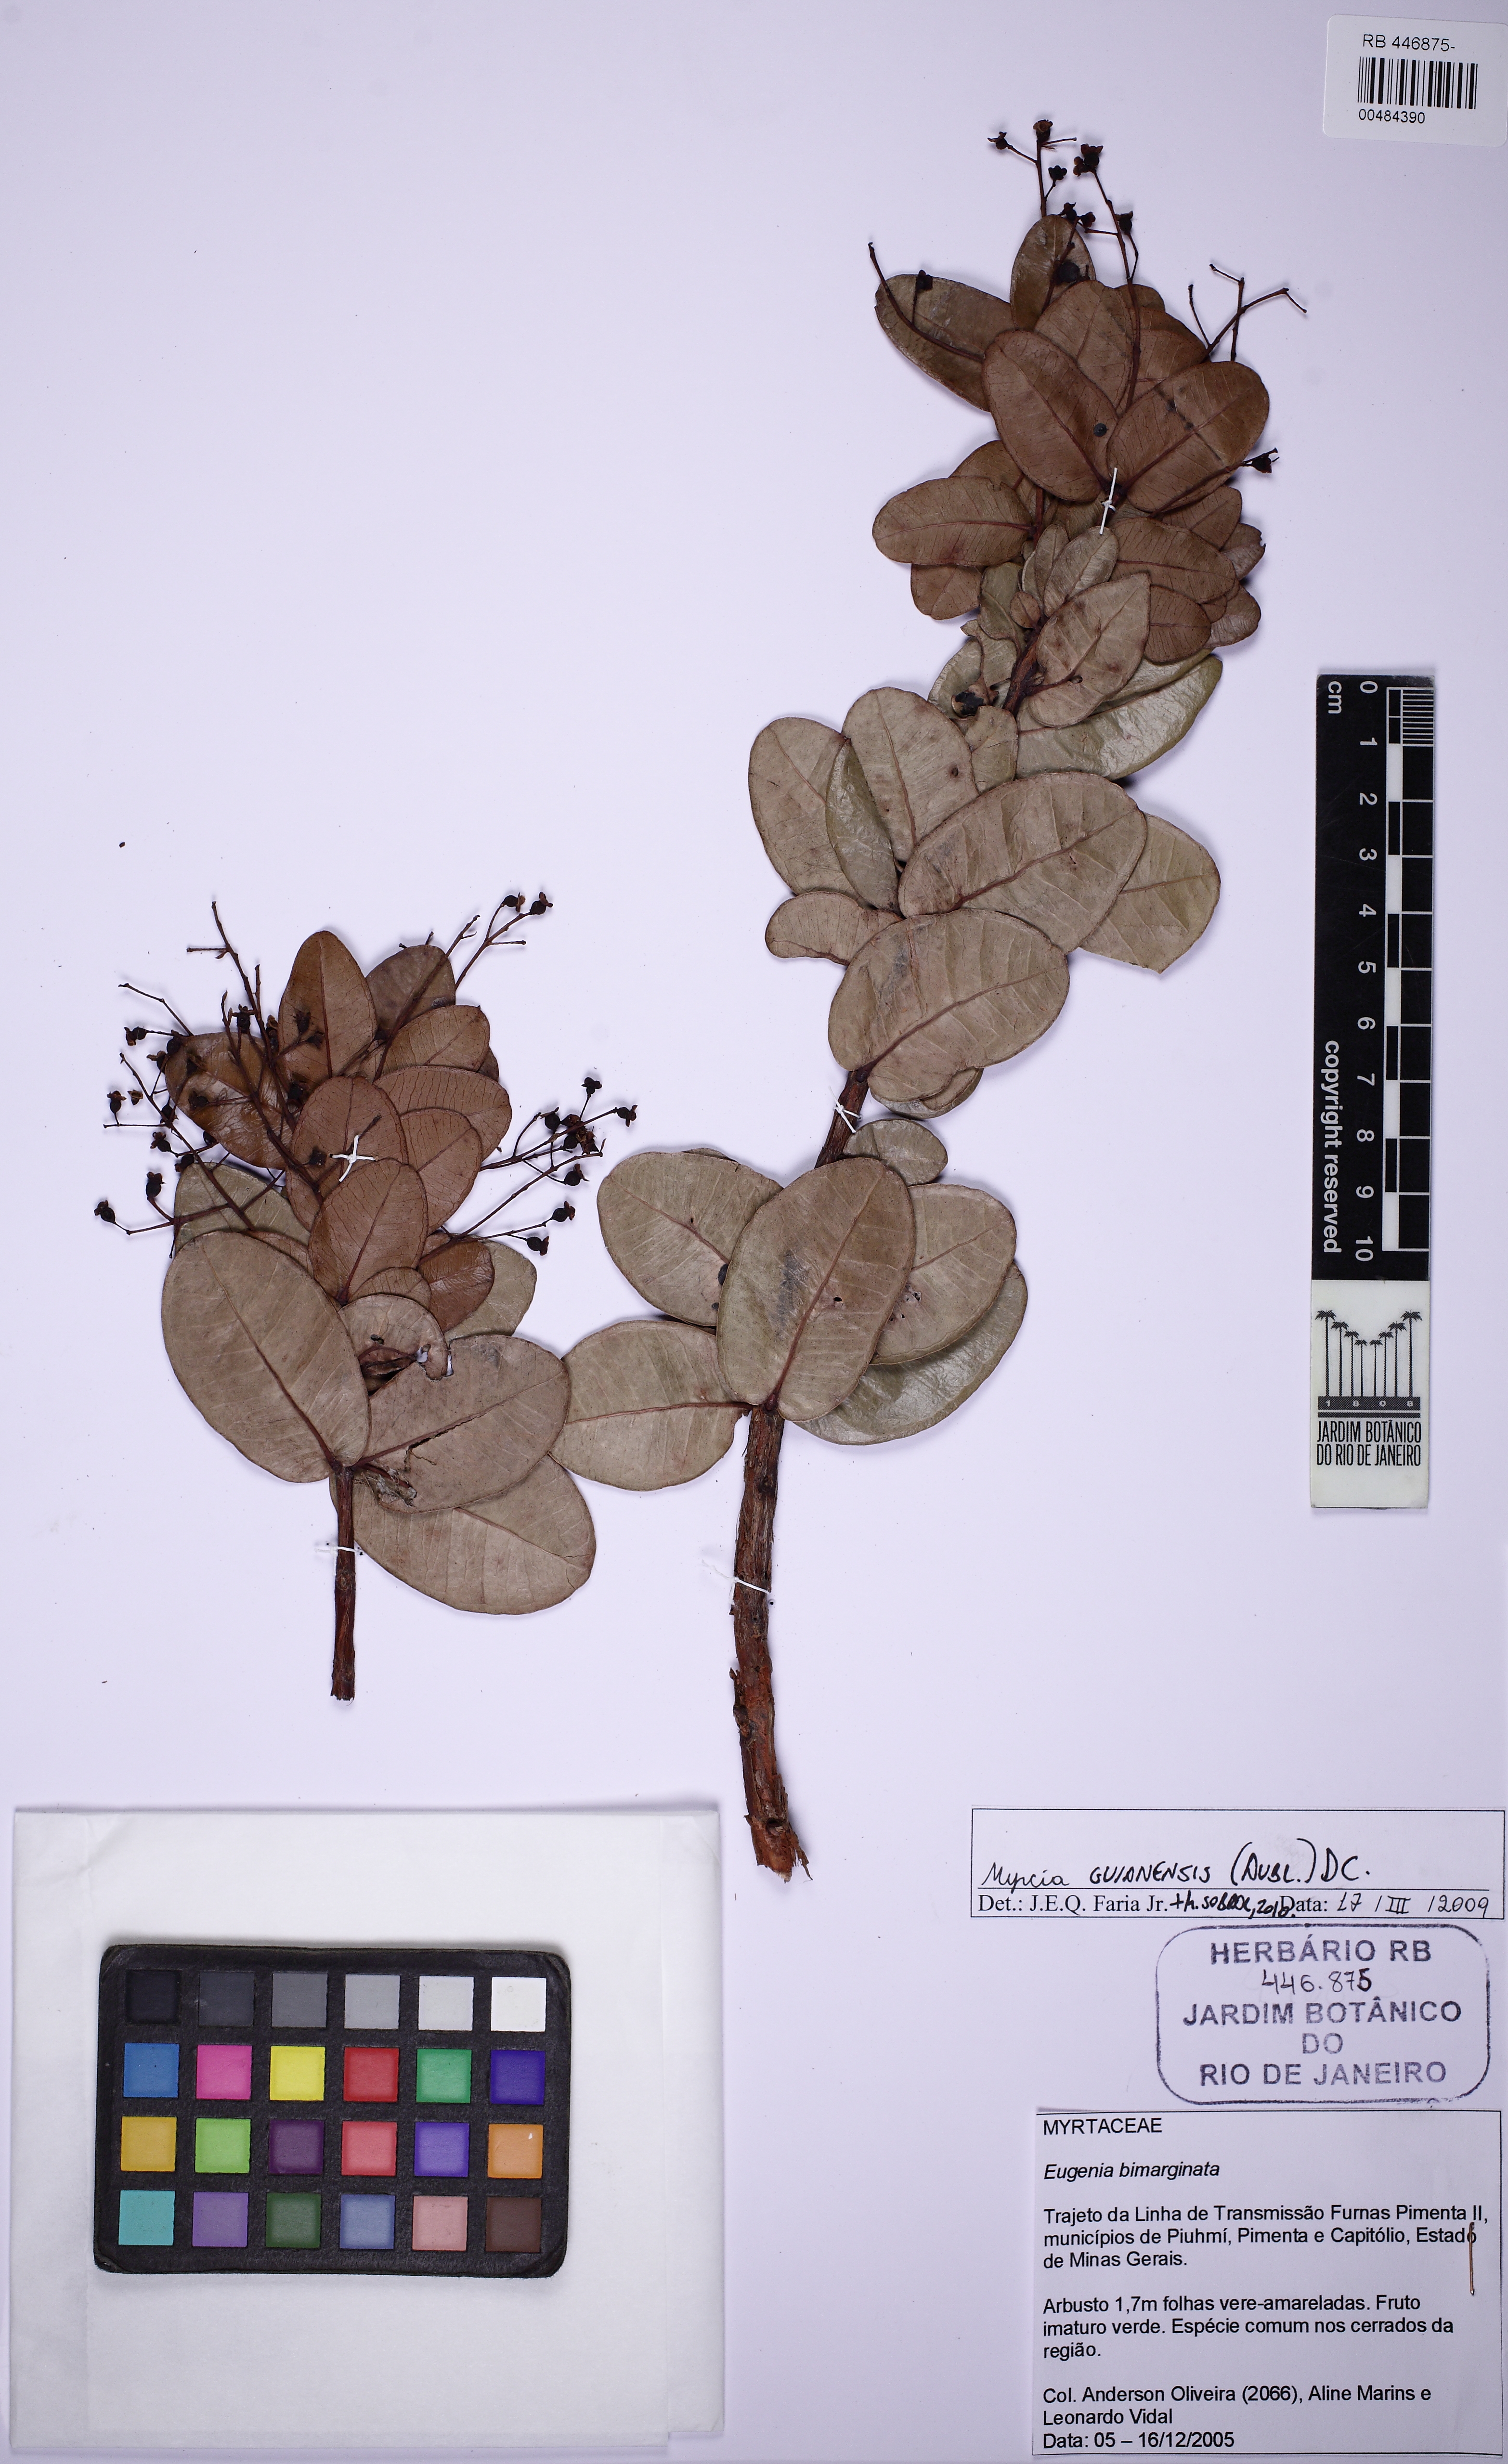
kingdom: Plantae
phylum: Tracheophyta
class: Magnoliopsida
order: Myrtales
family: Myrtaceae
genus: Myrcia
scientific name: Myrcia variabilis
